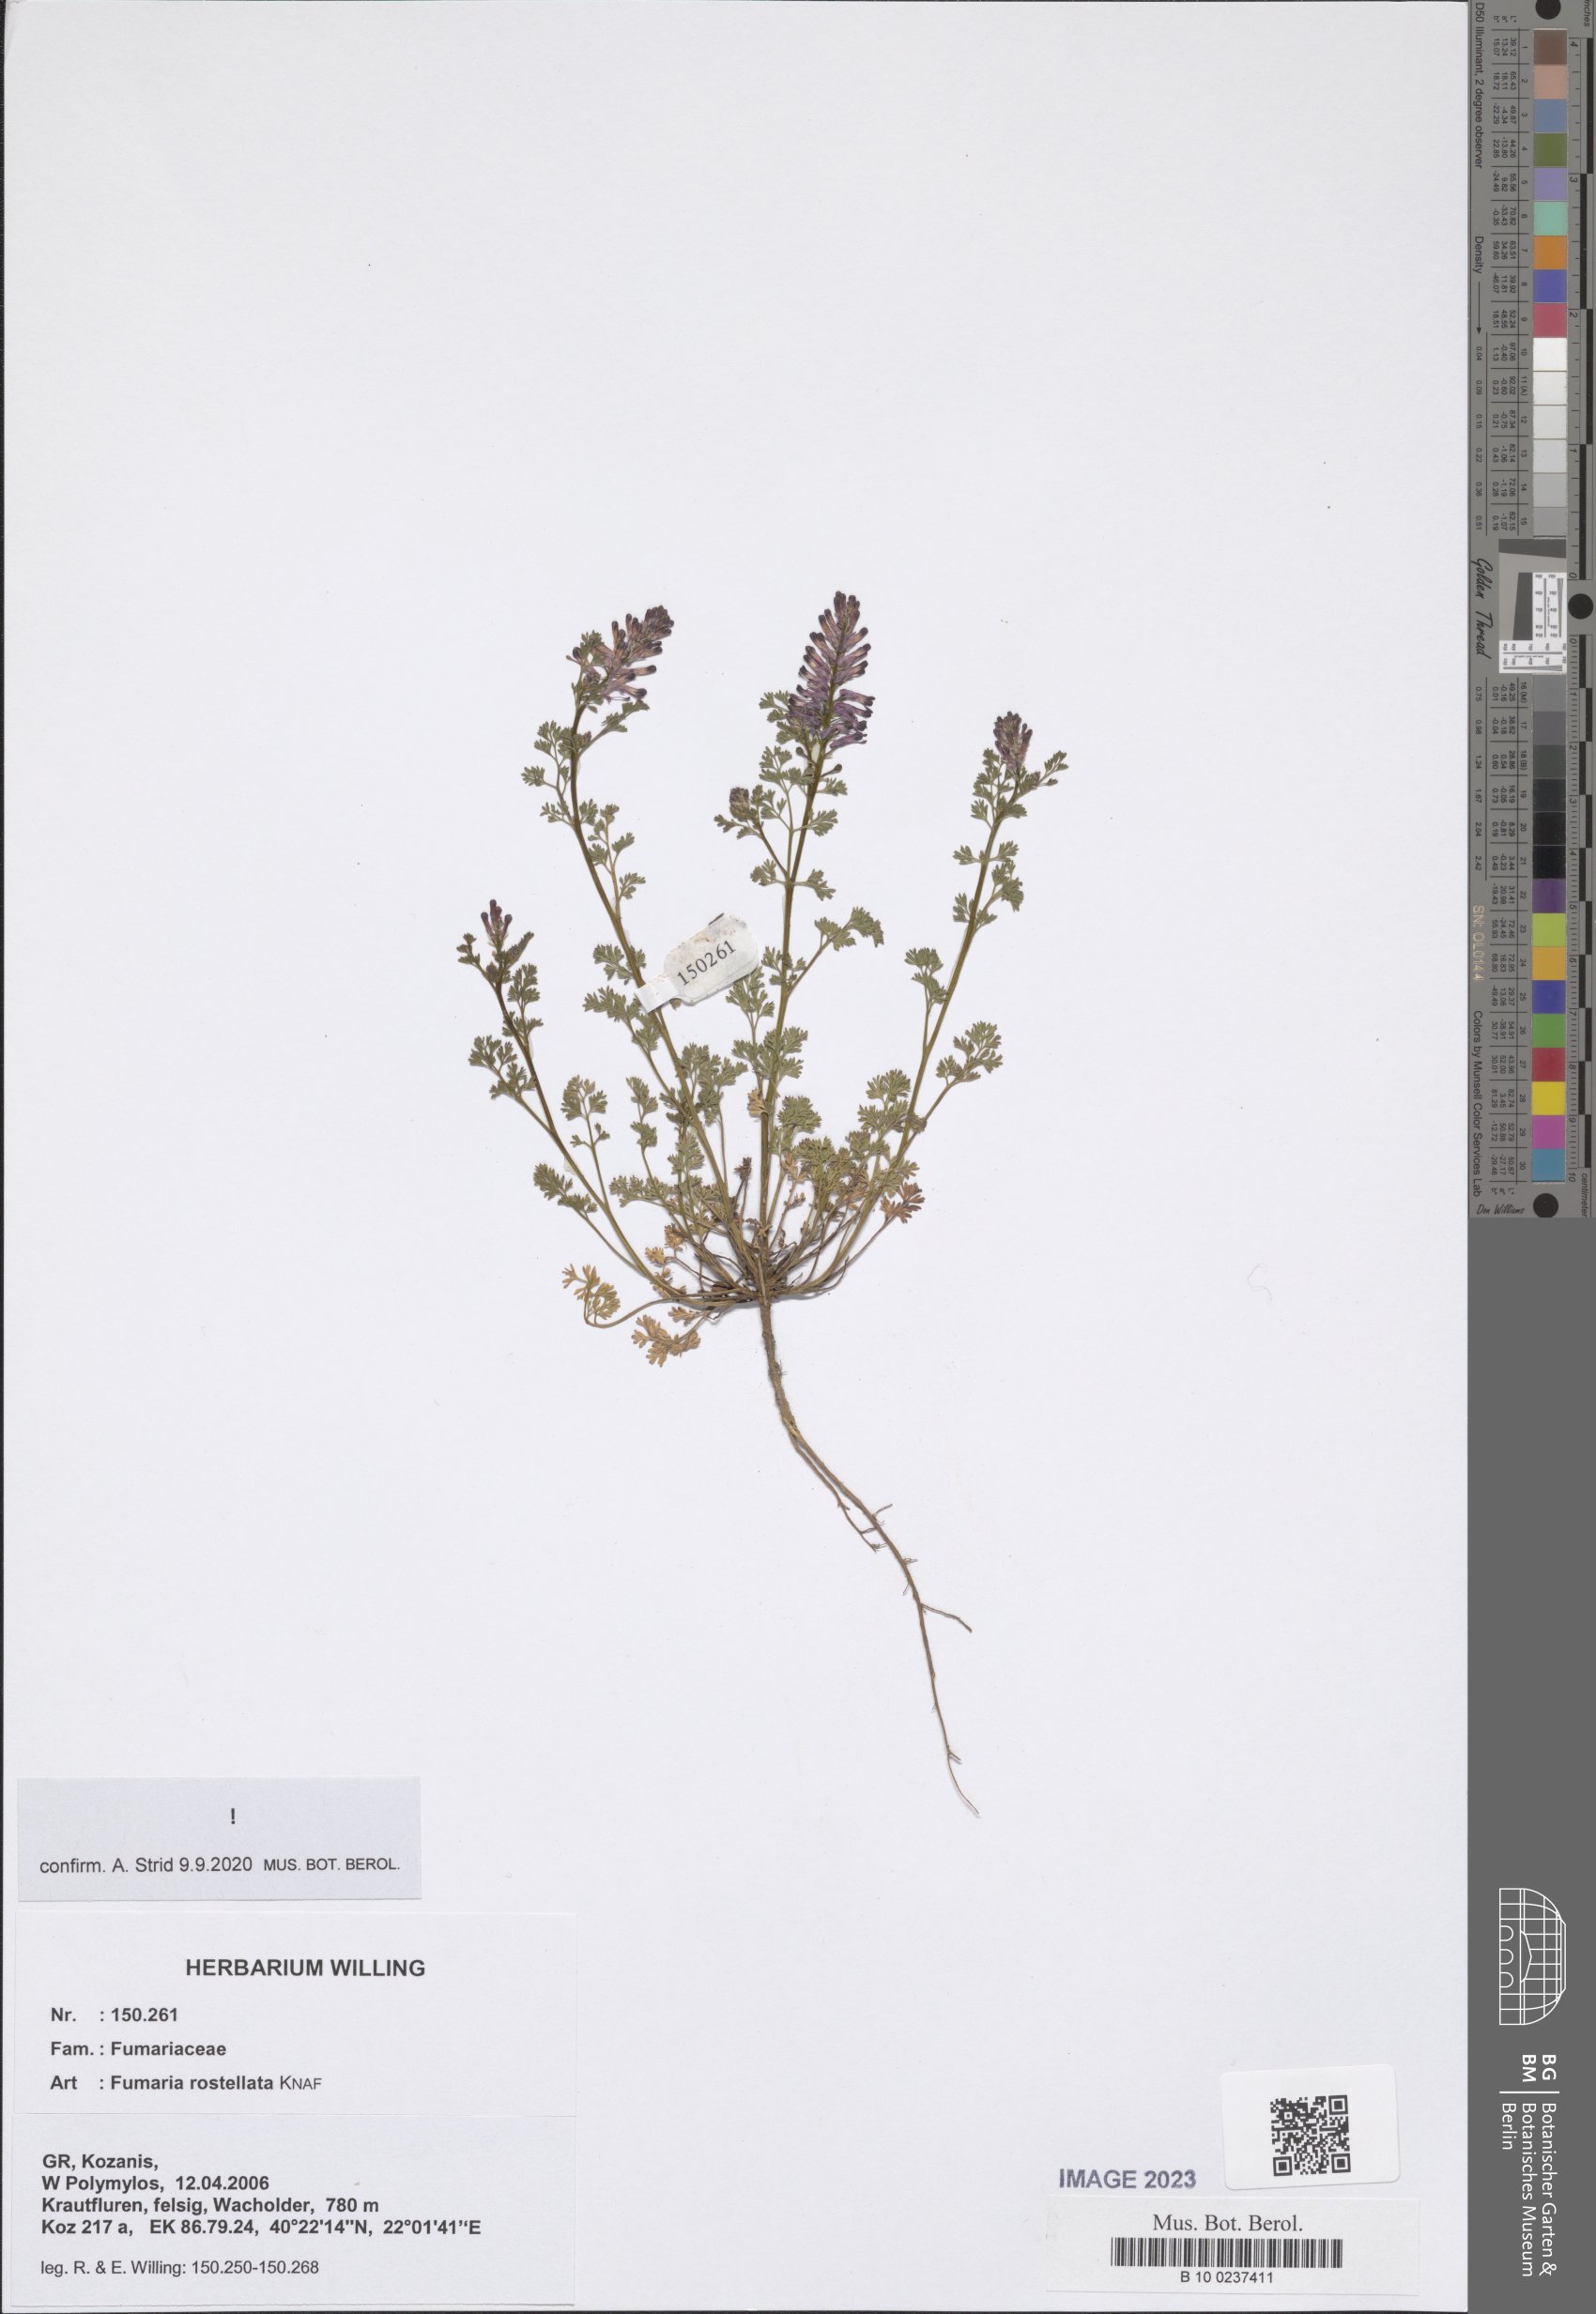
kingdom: Plantae
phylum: Tracheophyta
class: Magnoliopsida
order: Ranunculales
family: Papaveraceae
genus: Fumaria
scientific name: Fumaria rostellata
